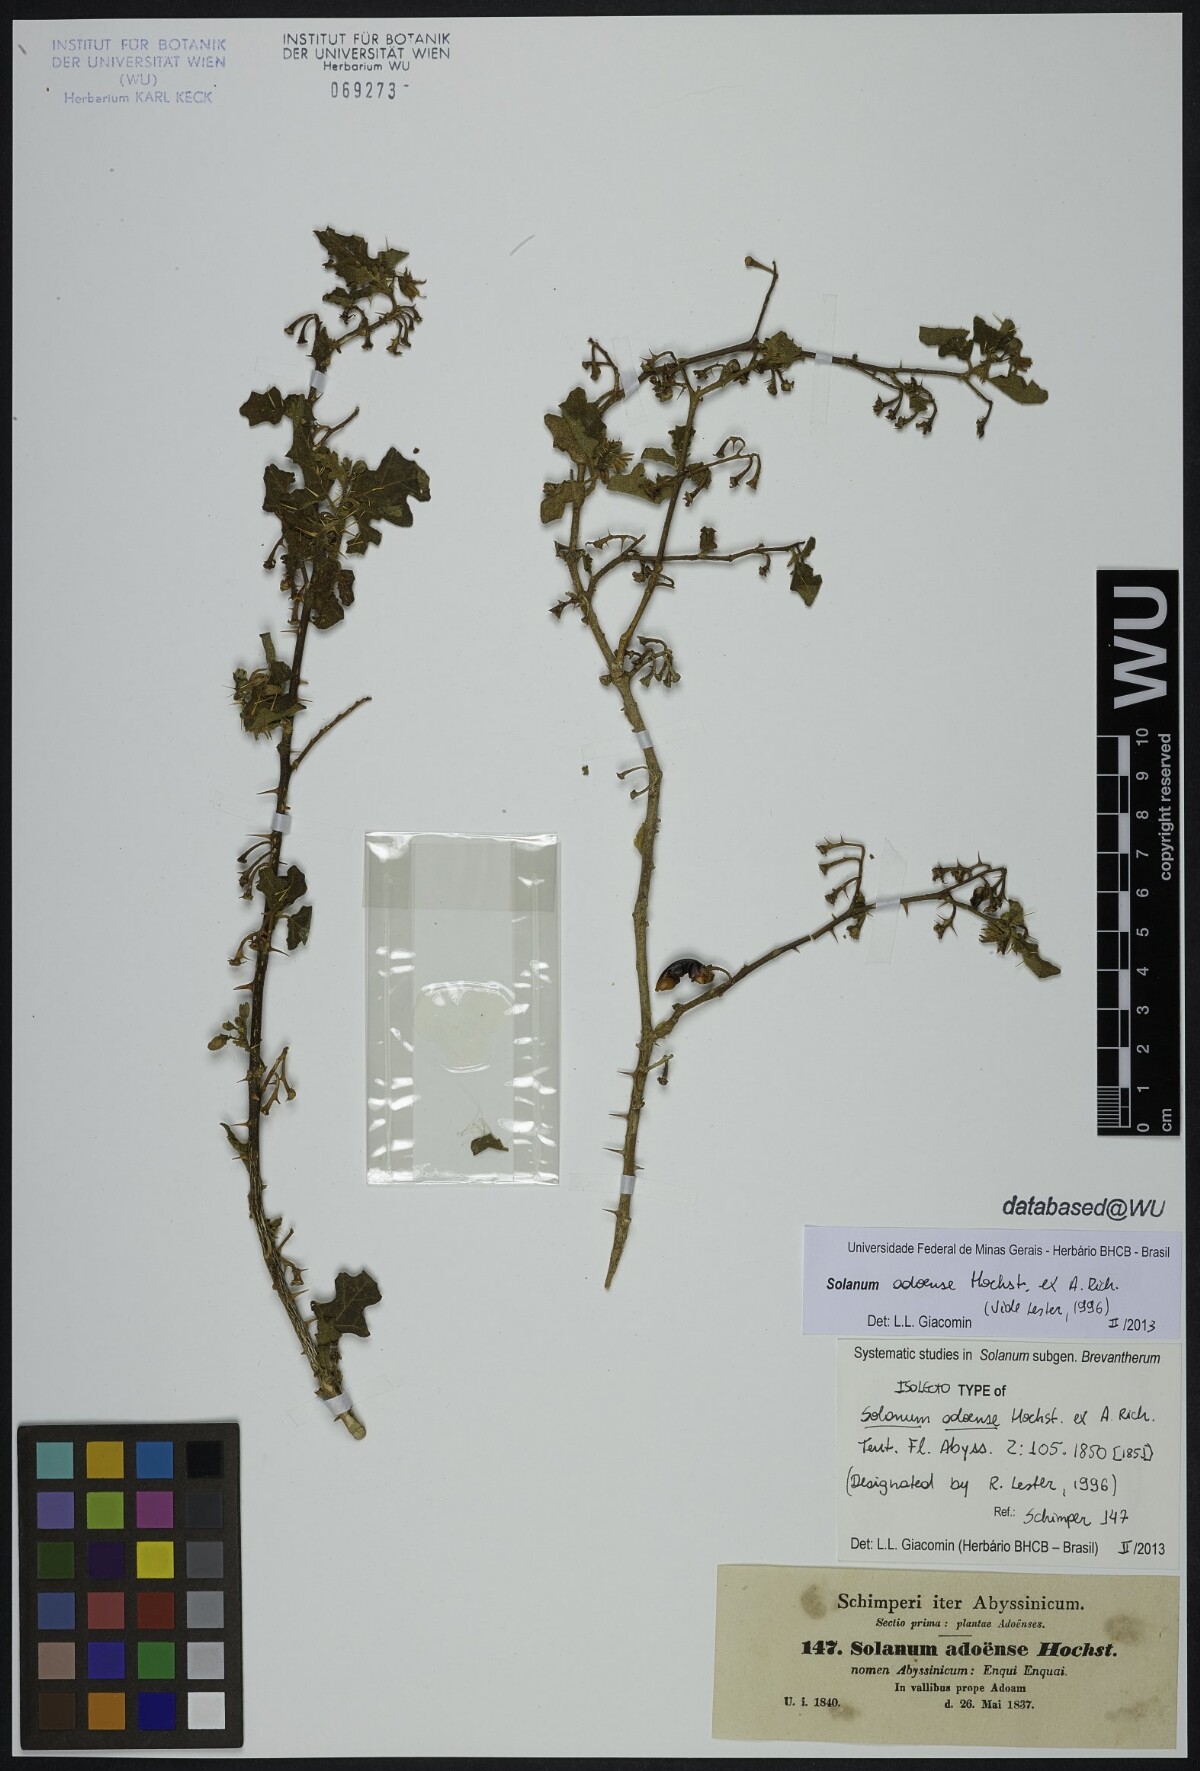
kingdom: Plantae
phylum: Tracheophyta
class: Magnoliopsida
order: Solanales
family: Solanaceae
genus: Solanum
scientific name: Solanum adoense
